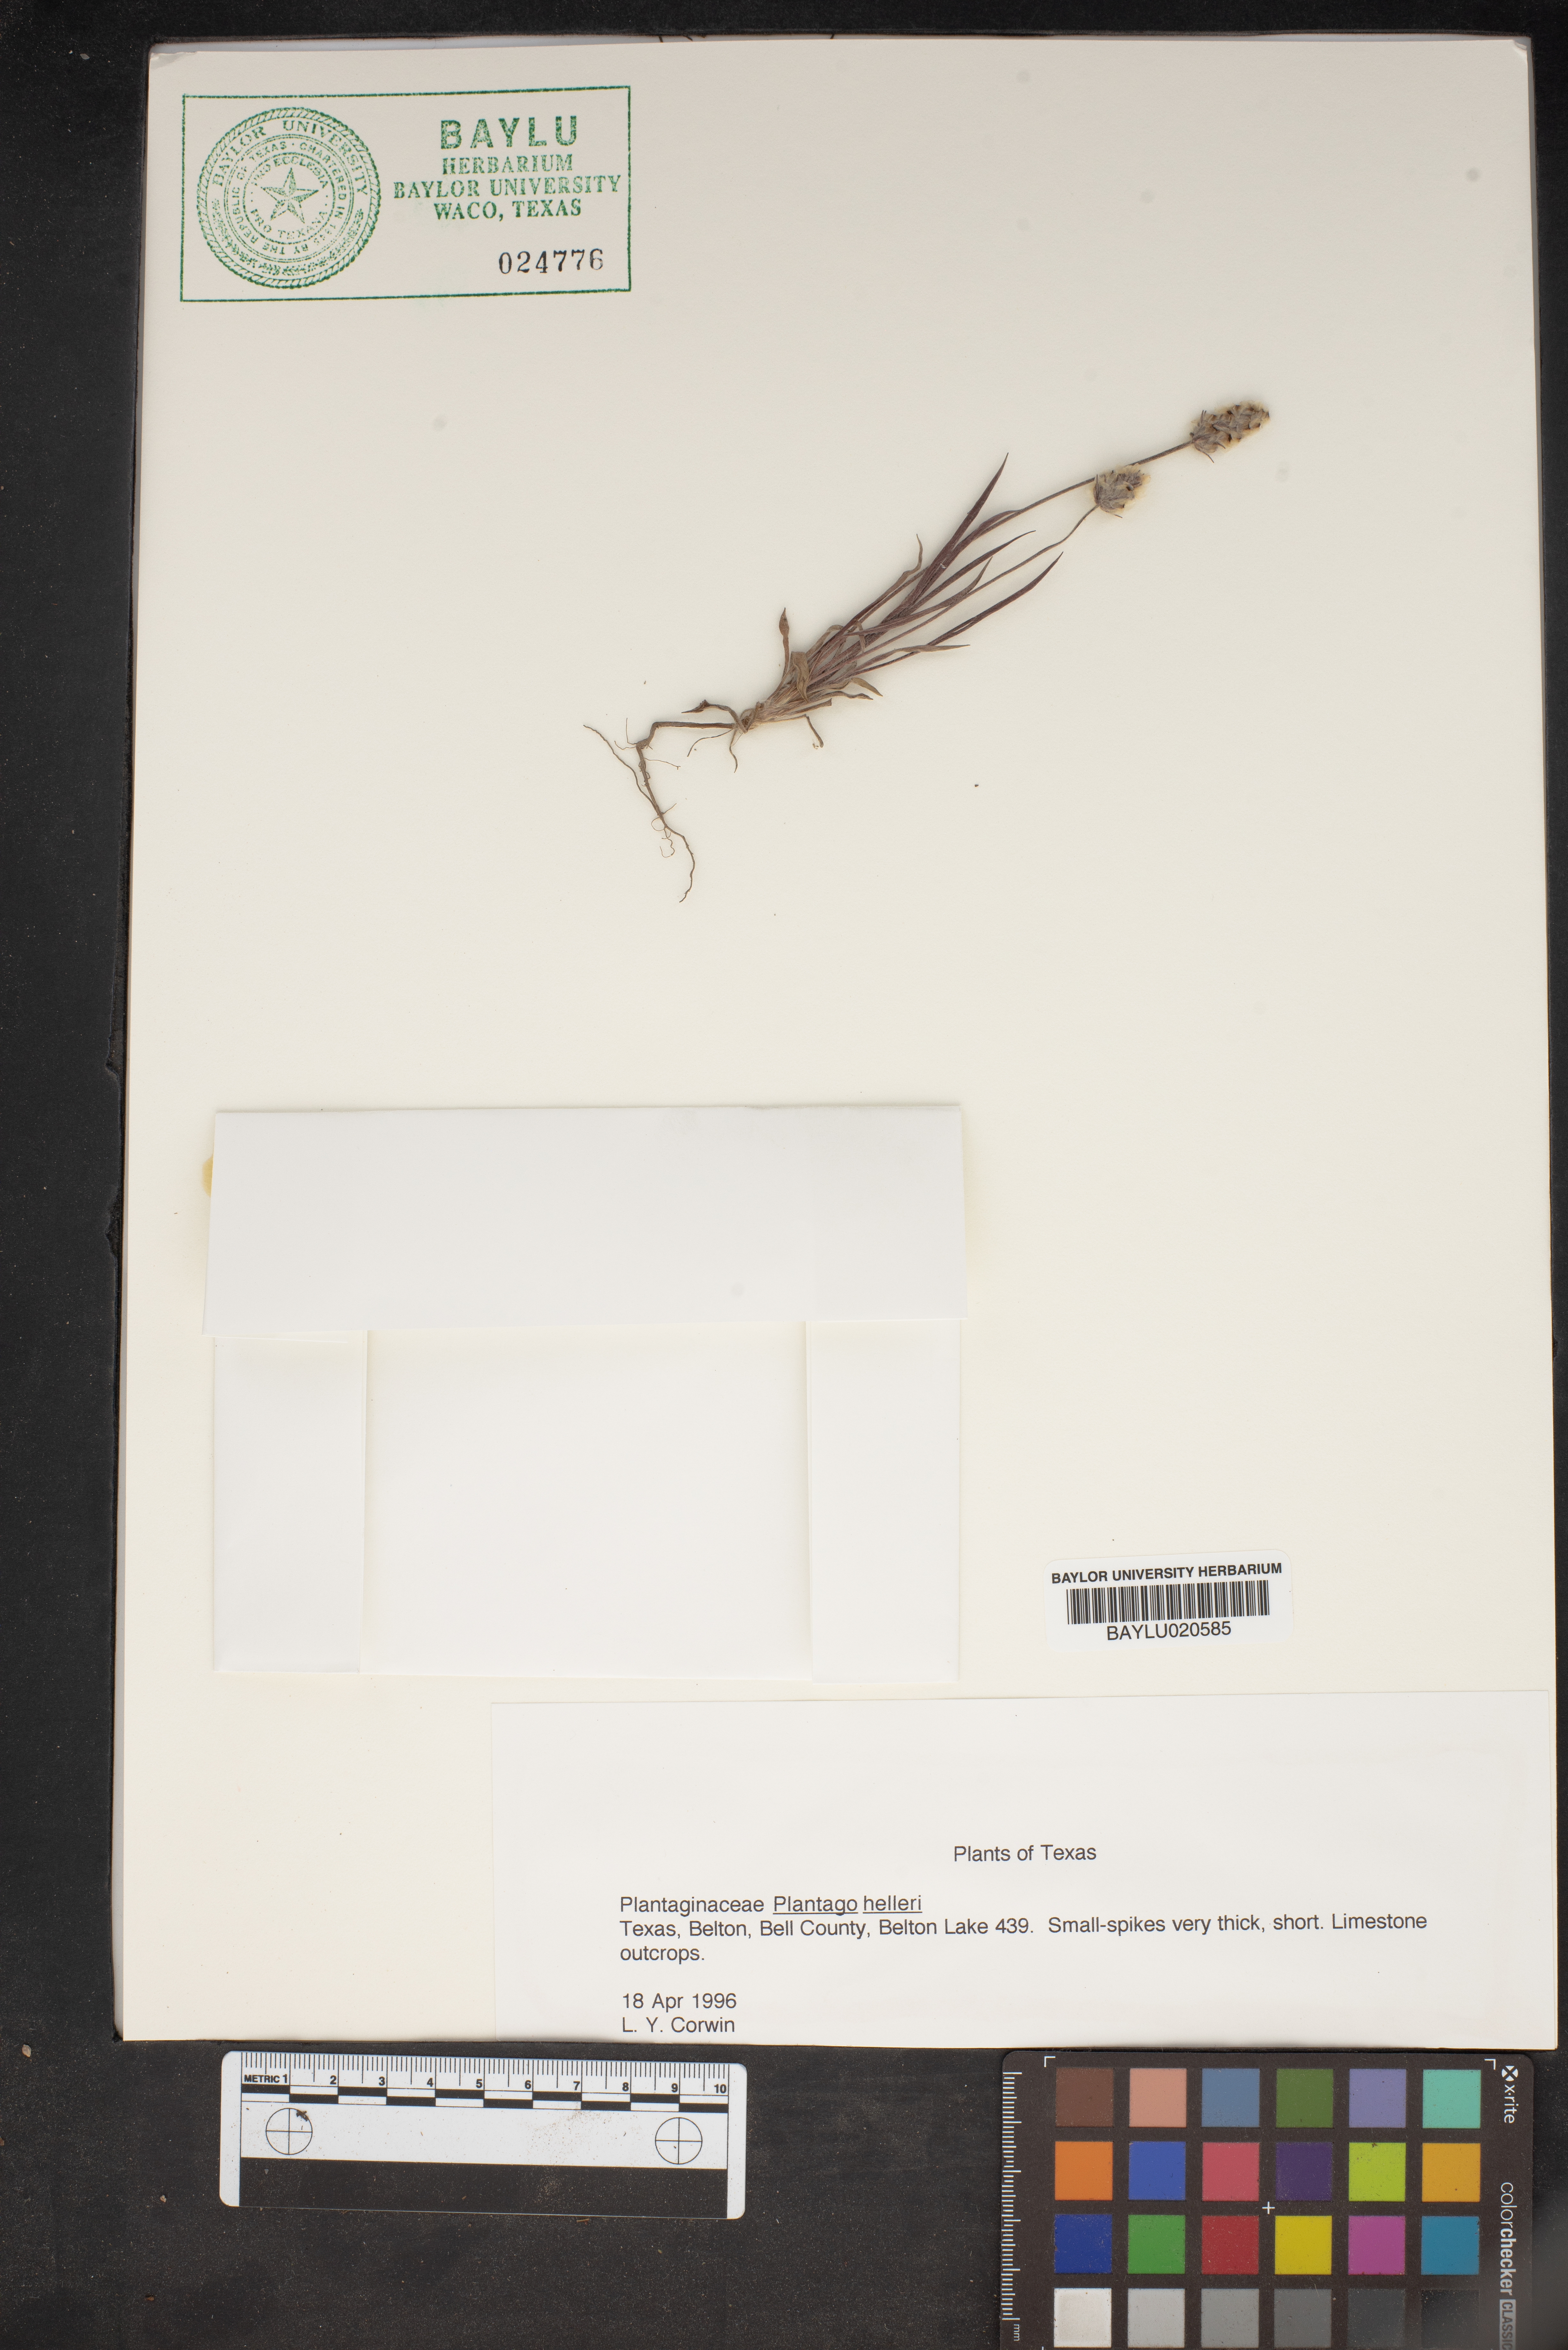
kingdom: Plantae
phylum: Tracheophyta
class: Magnoliopsida
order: Lamiales
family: Plantaginaceae
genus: Plantago
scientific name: Plantago helleri
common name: Heller's plantain
